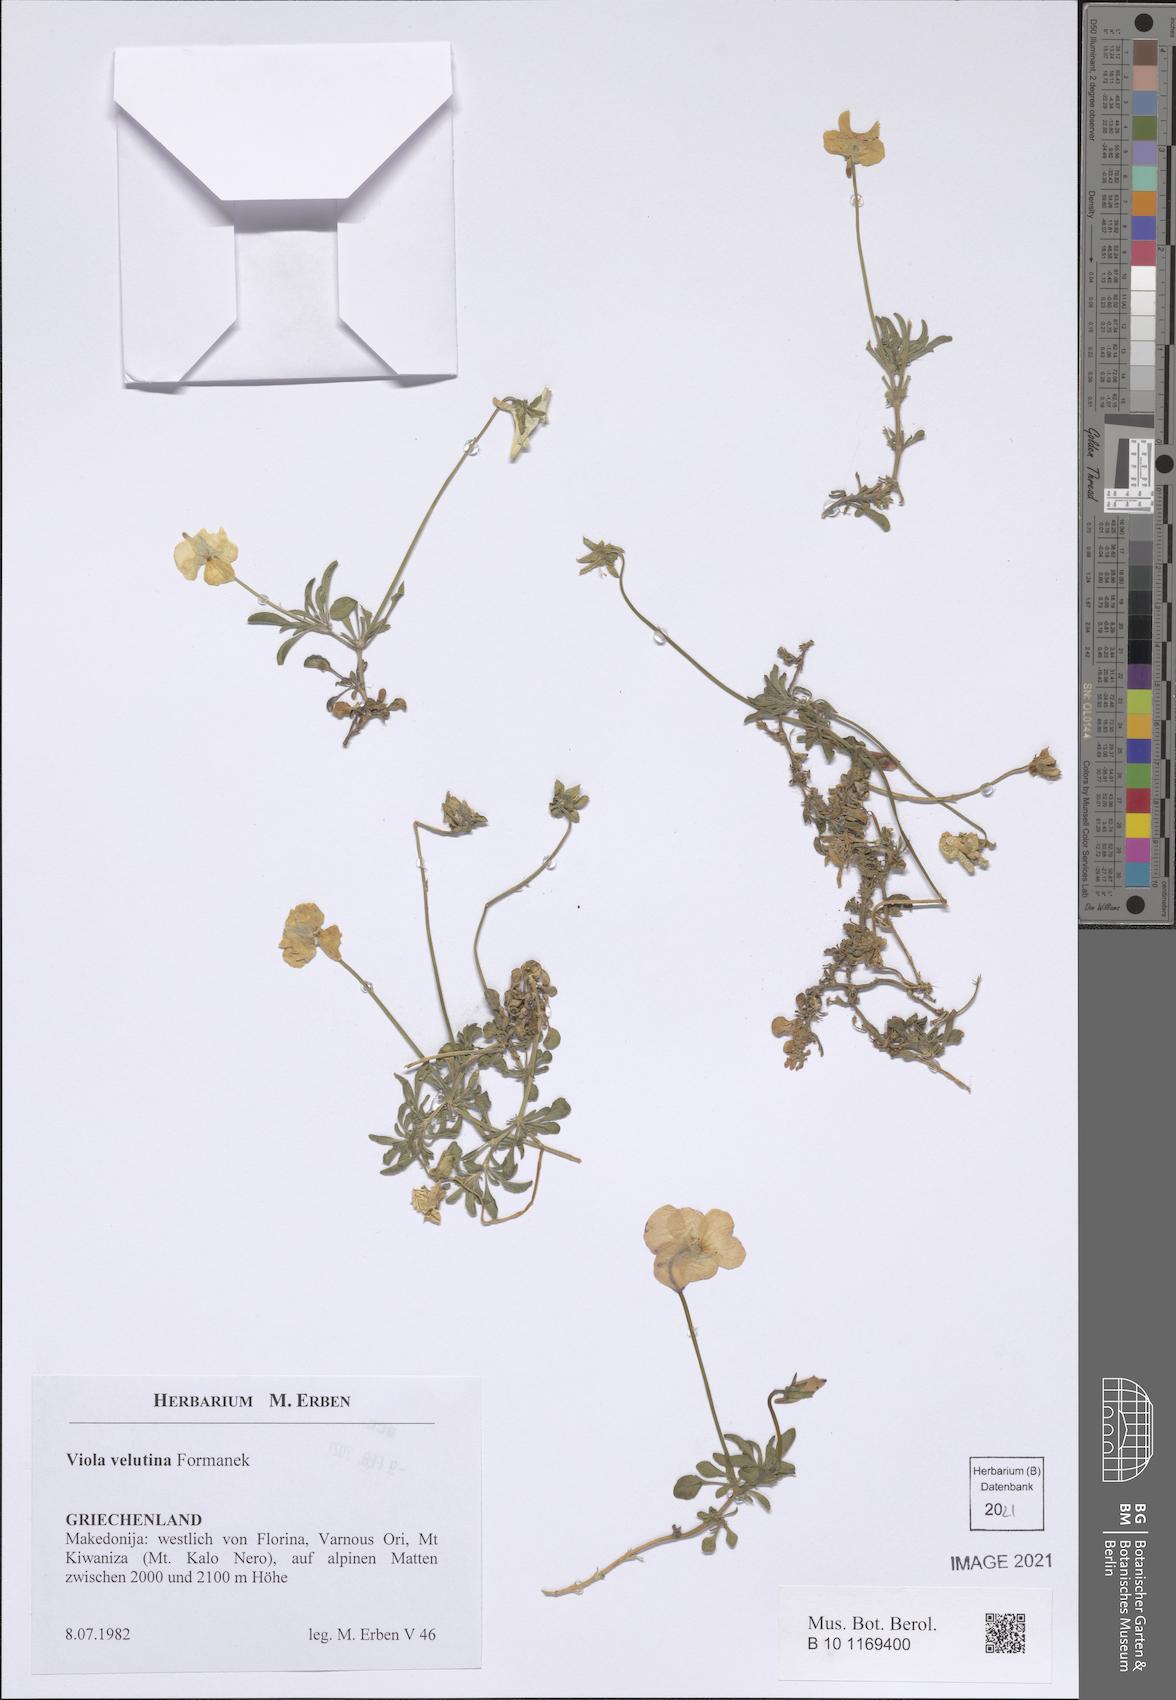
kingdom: Plantae
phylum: Tracheophyta
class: Magnoliopsida
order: Malpighiales
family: Violaceae
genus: Viola
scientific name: Viola velutina
